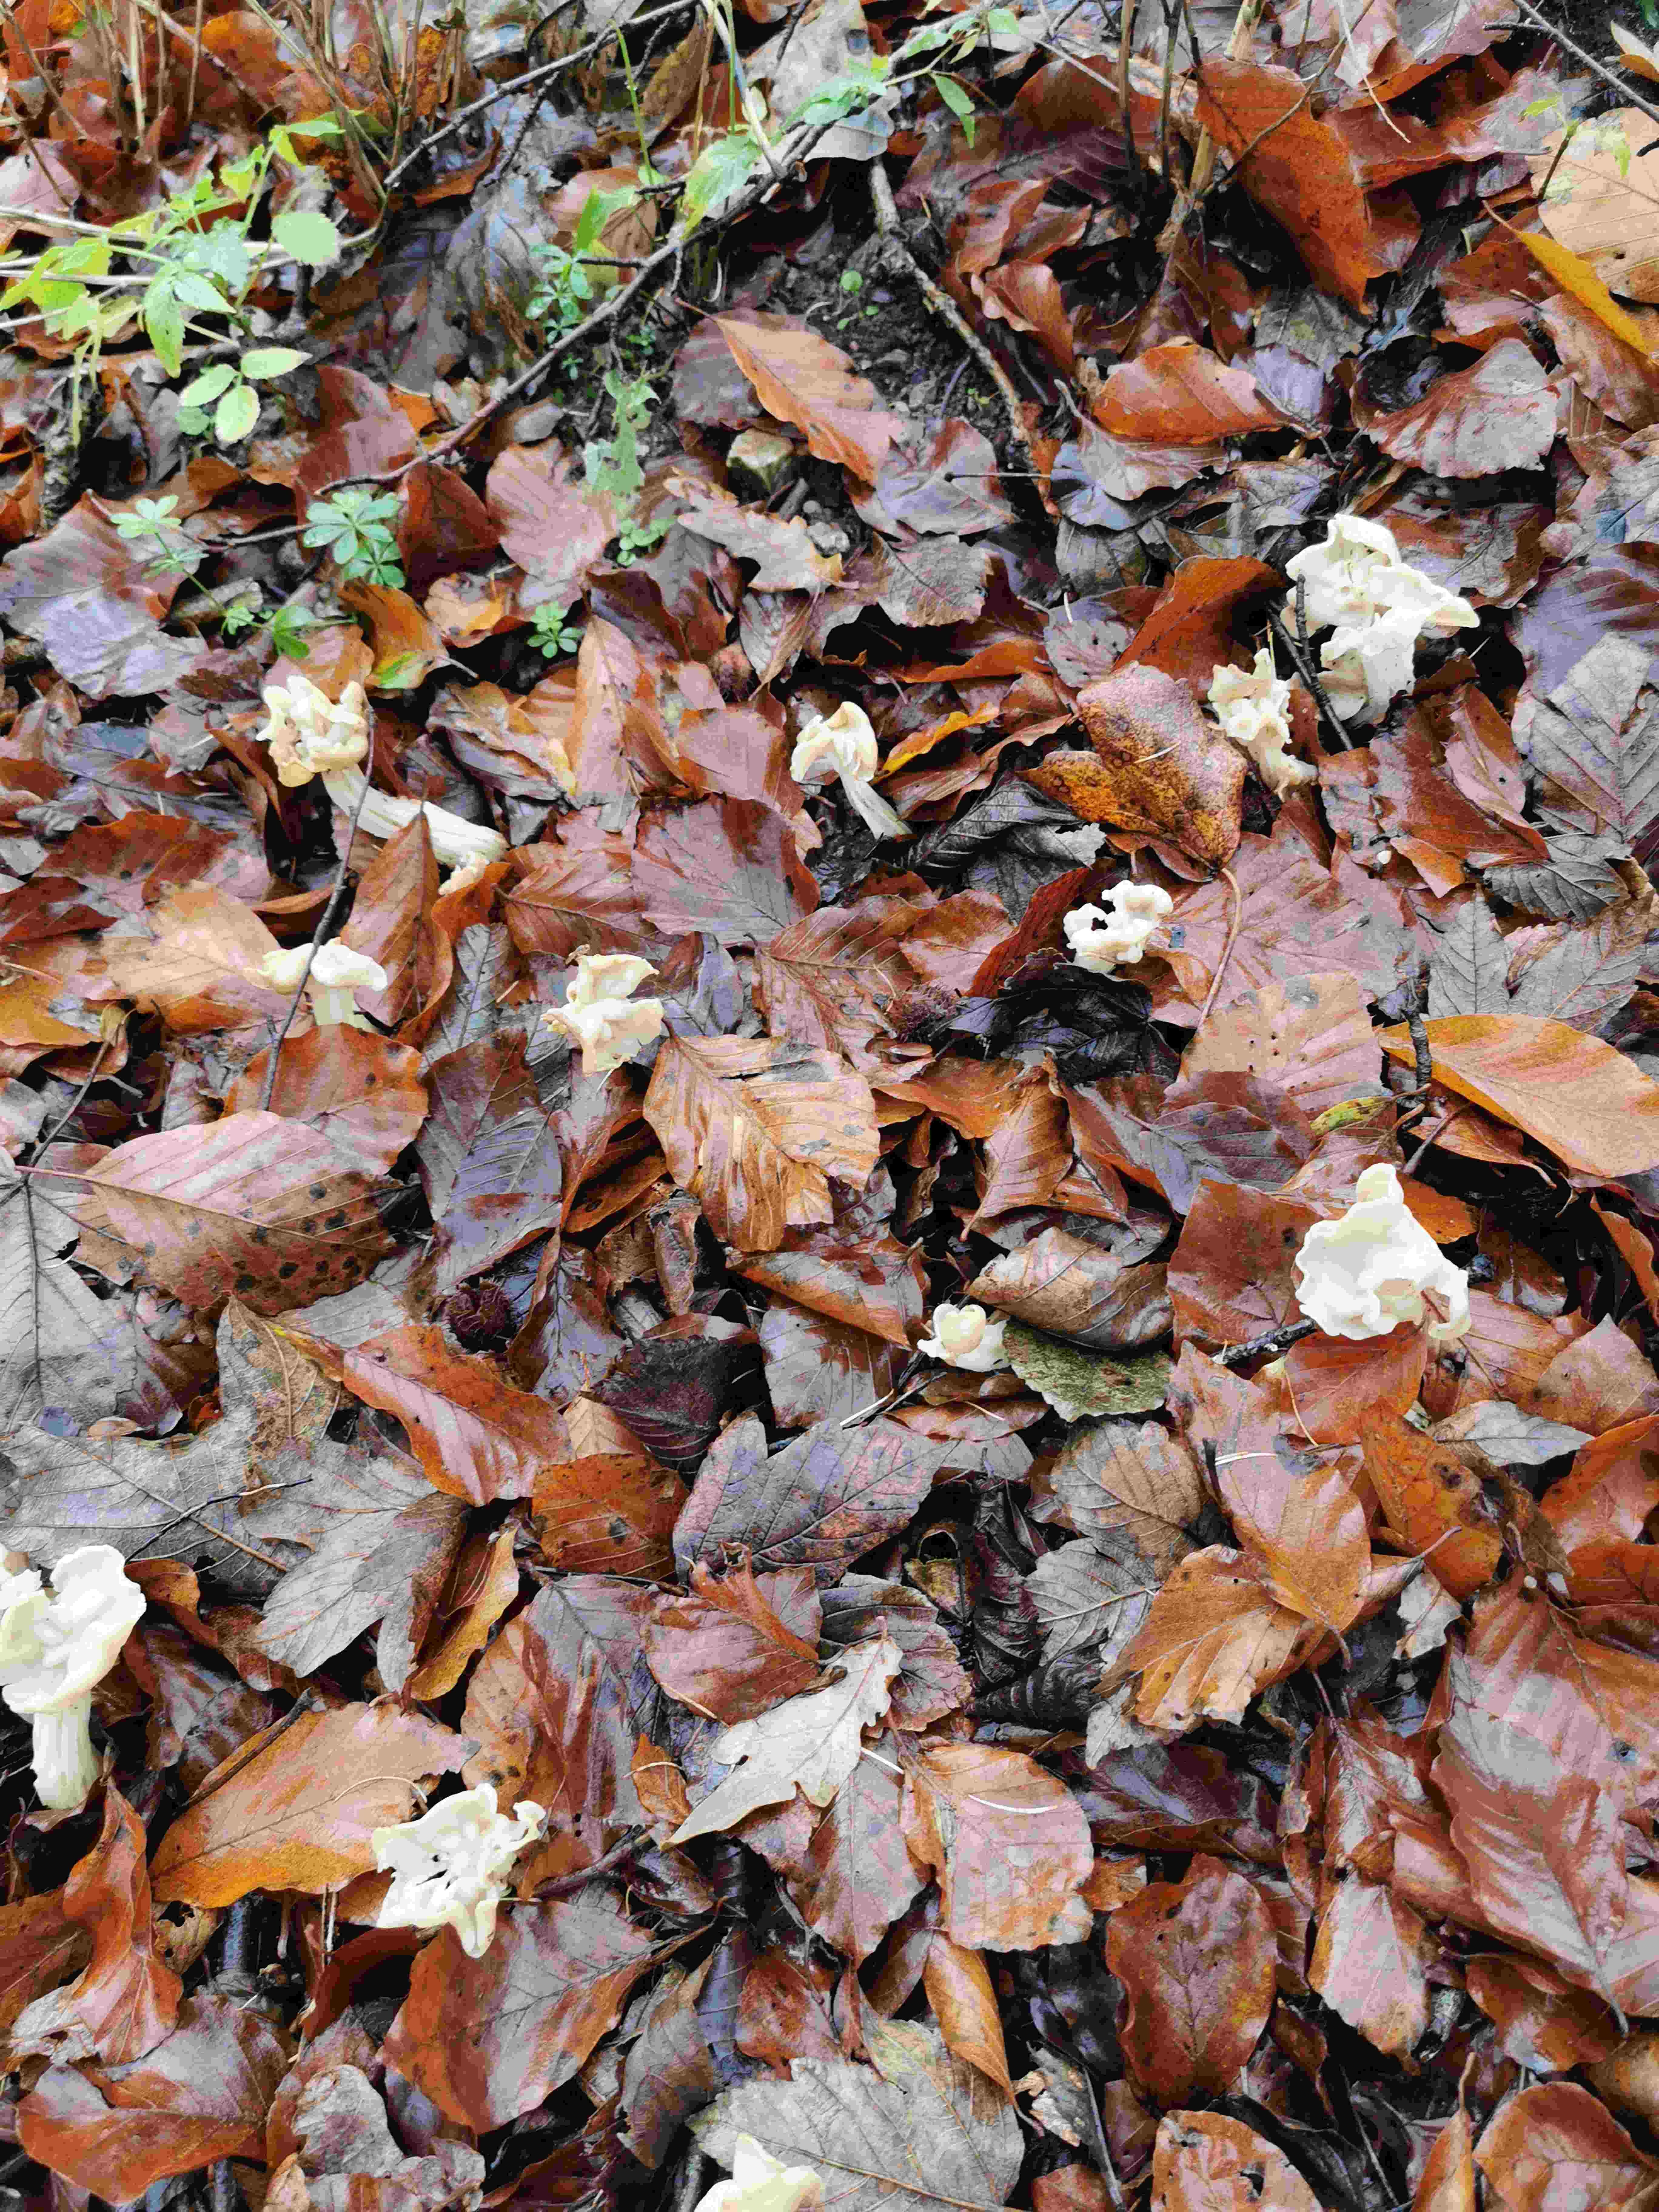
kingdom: Fungi
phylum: Ascomycota
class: Pezizomycetes
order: Pezizales
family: Helvellaceae
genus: Helvella
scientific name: Helvella crispa
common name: kruset foldhat
